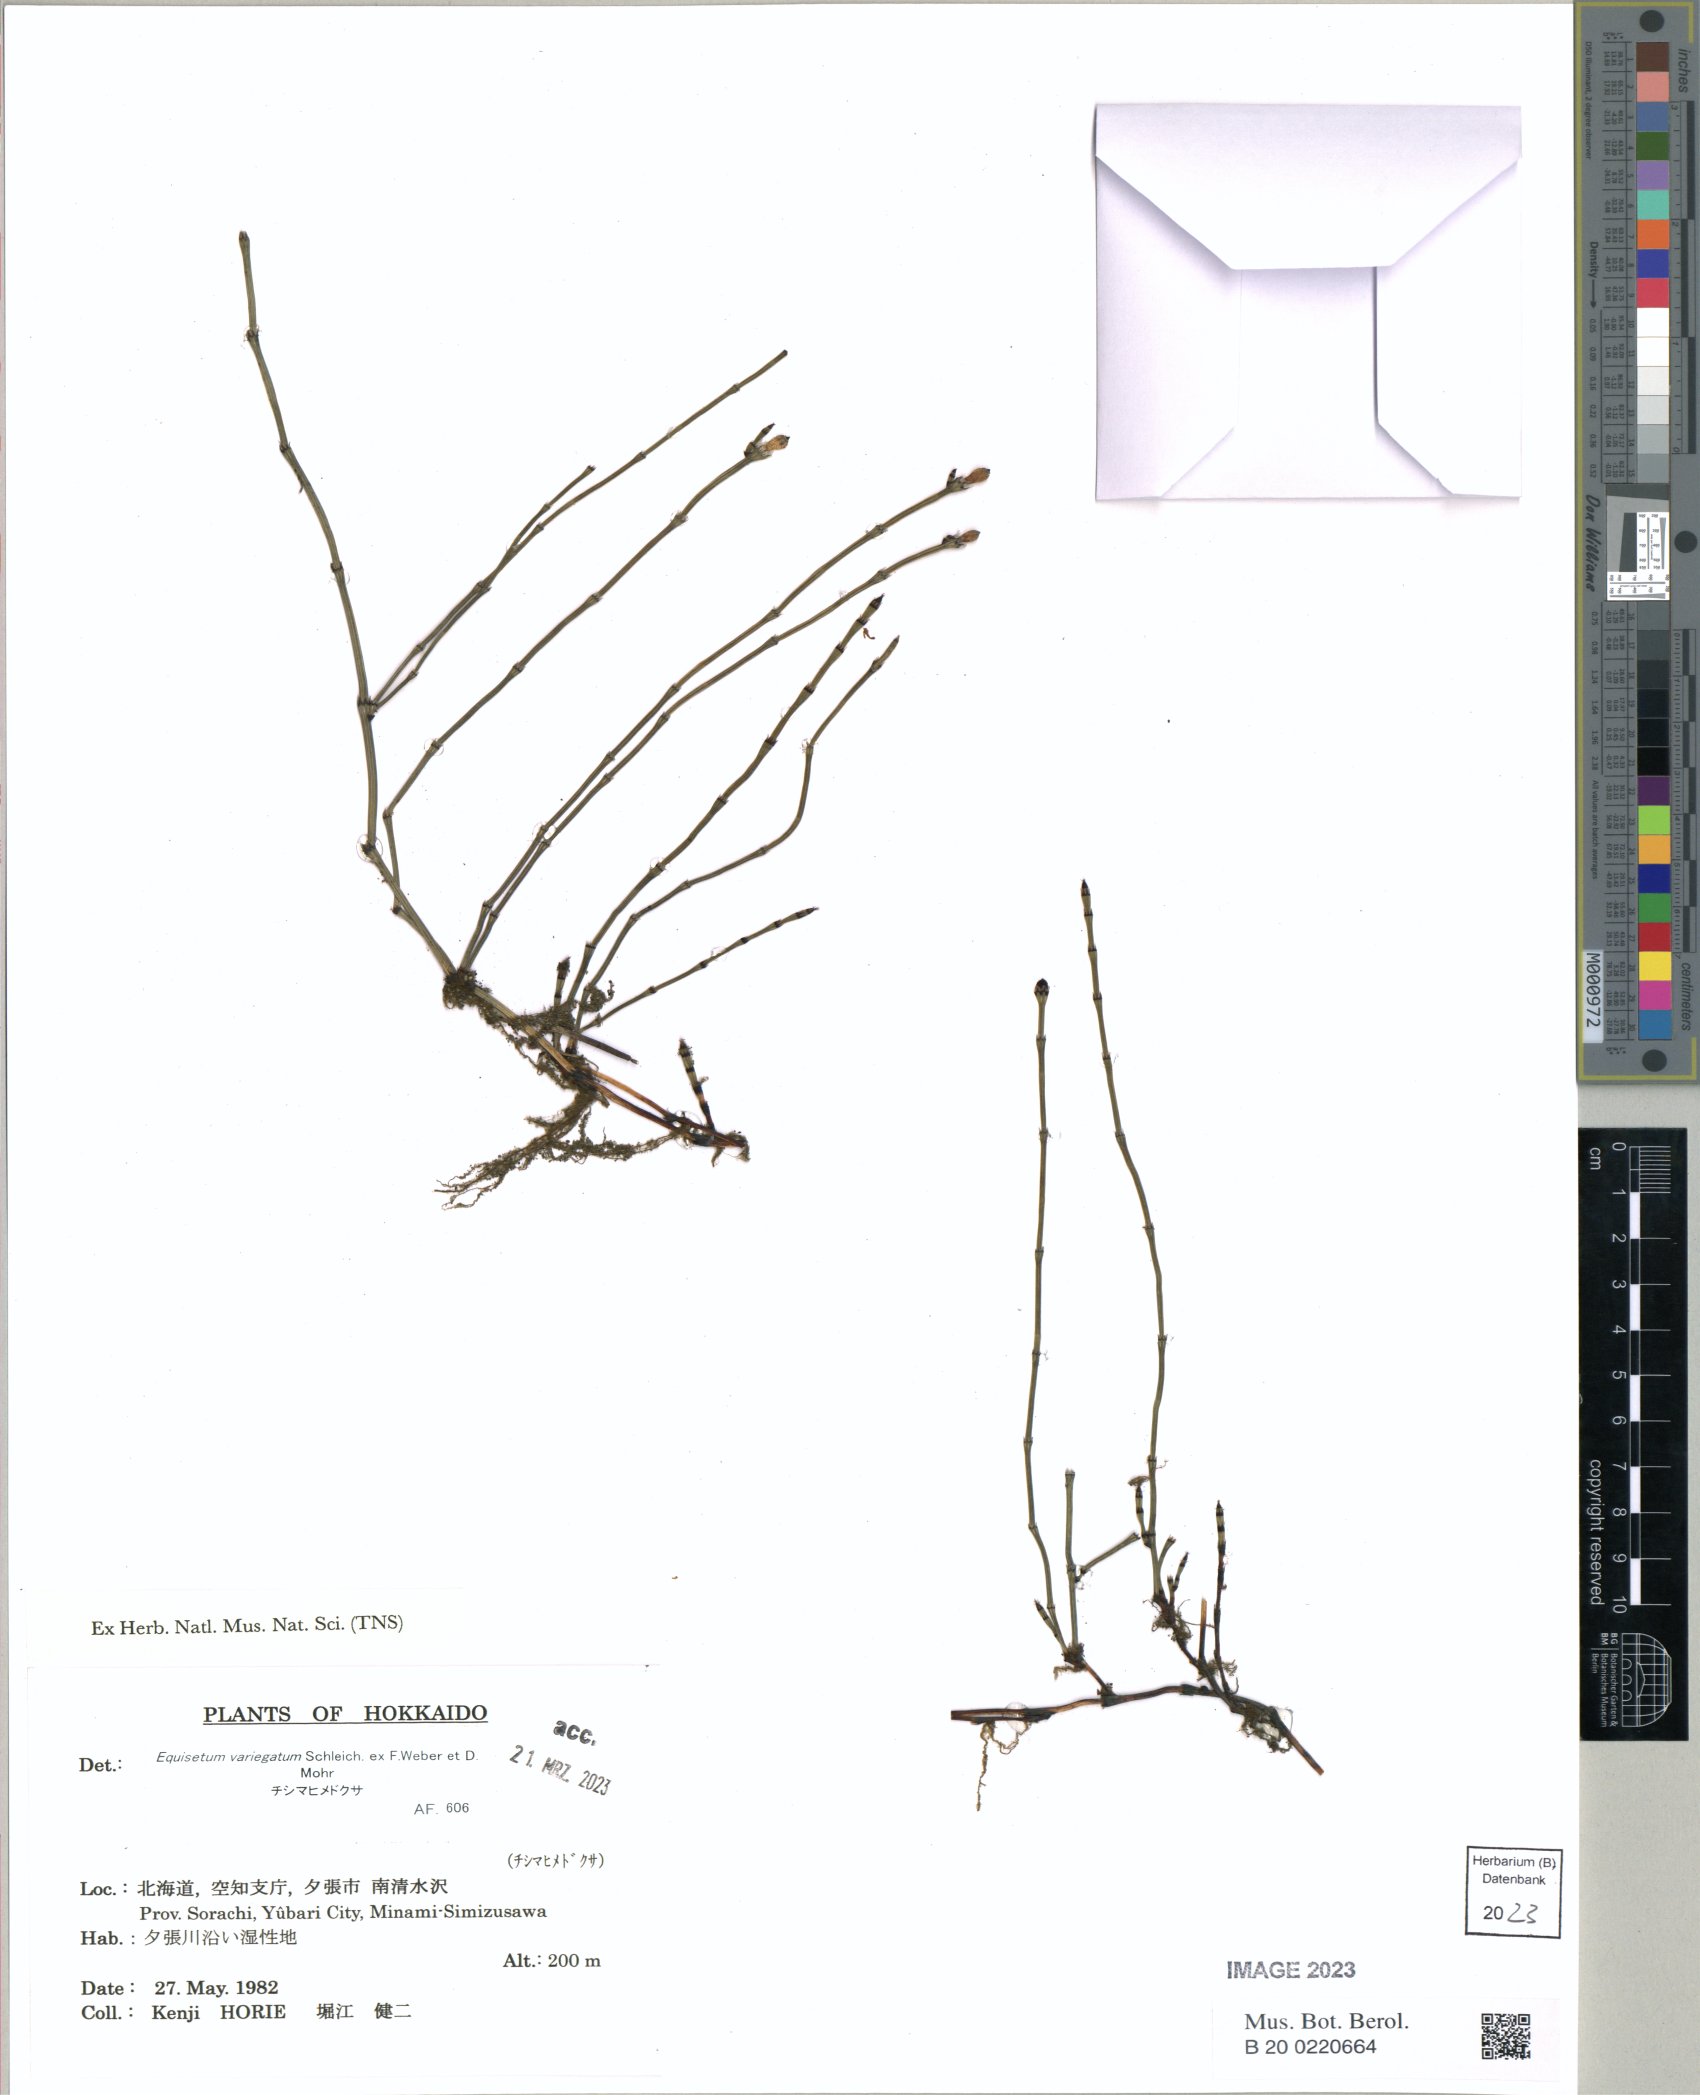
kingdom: Plantae
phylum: Tracheophyta
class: Polypodiopsida
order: Equisetales
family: Equisetaceae
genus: Equisetum
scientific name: Equisetum variegatum
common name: Variegated horsetail
